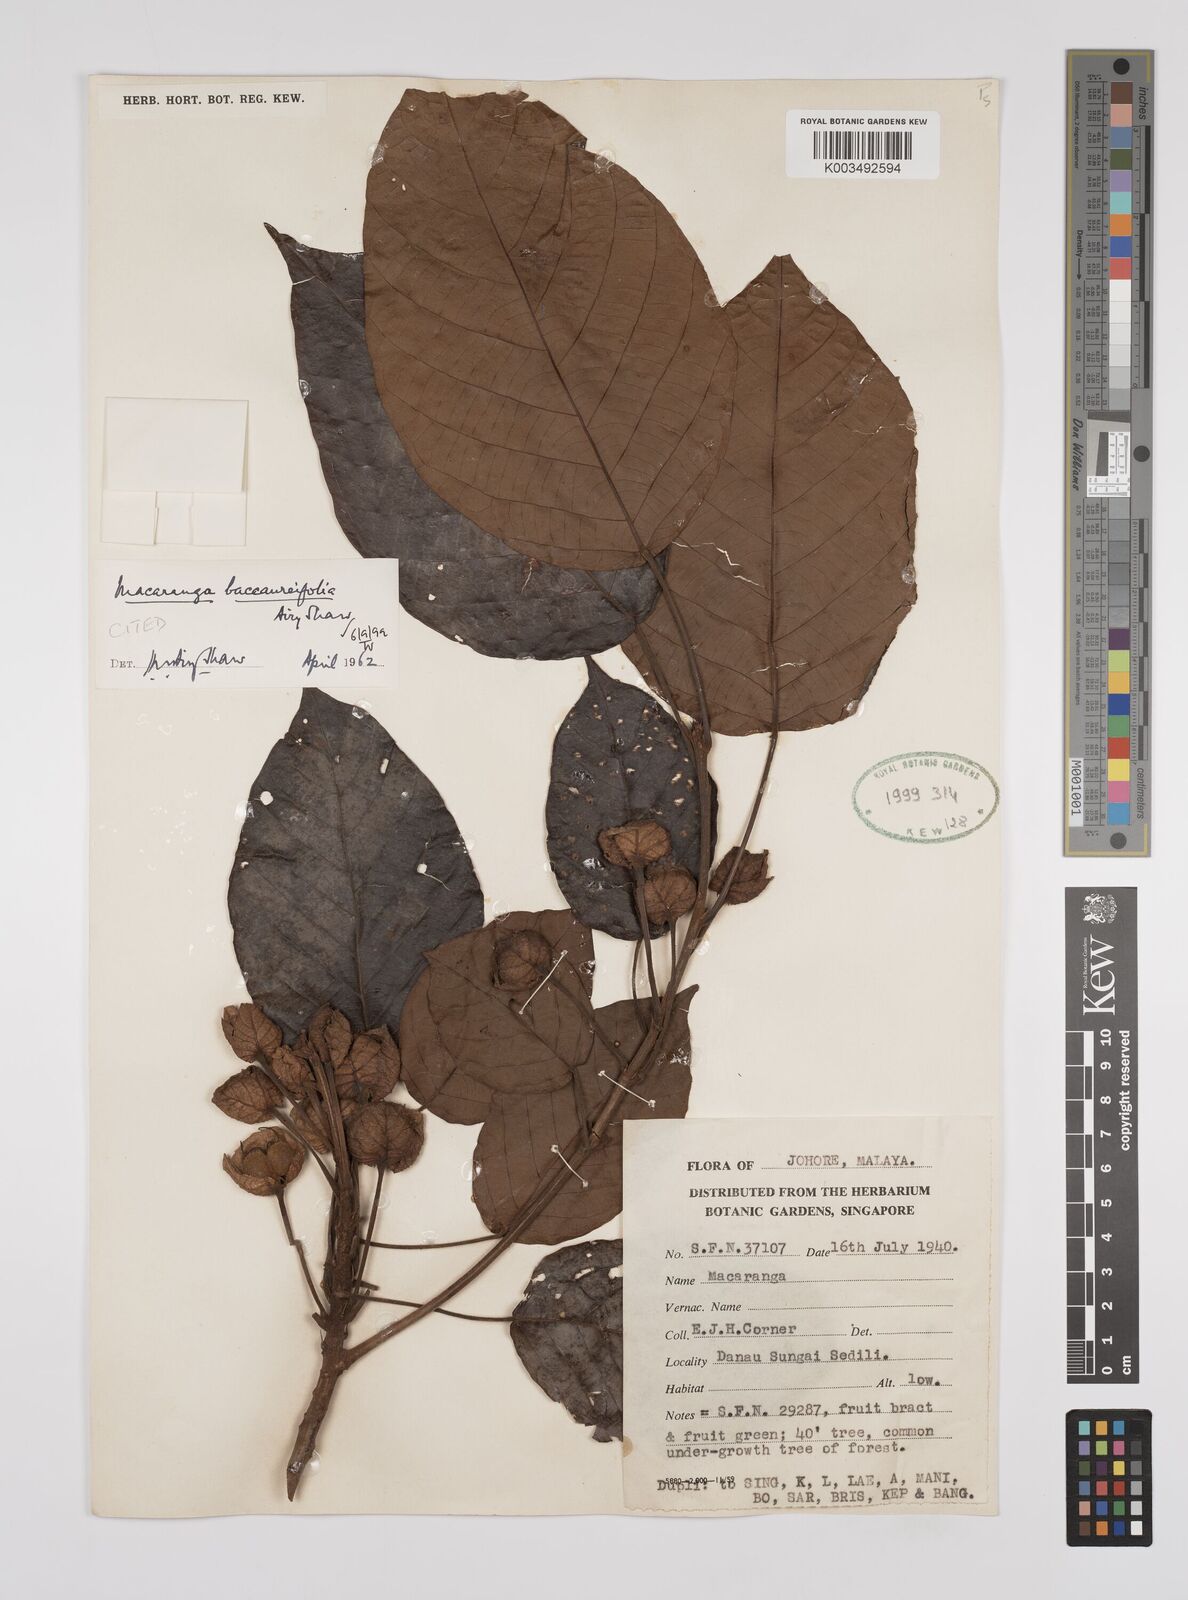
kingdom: Plantae
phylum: Tracheophyta
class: Magnoliopsida
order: Malpighiales
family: Euphorbiaceae
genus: Macaranga
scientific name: Macaranga baccaureifolia
